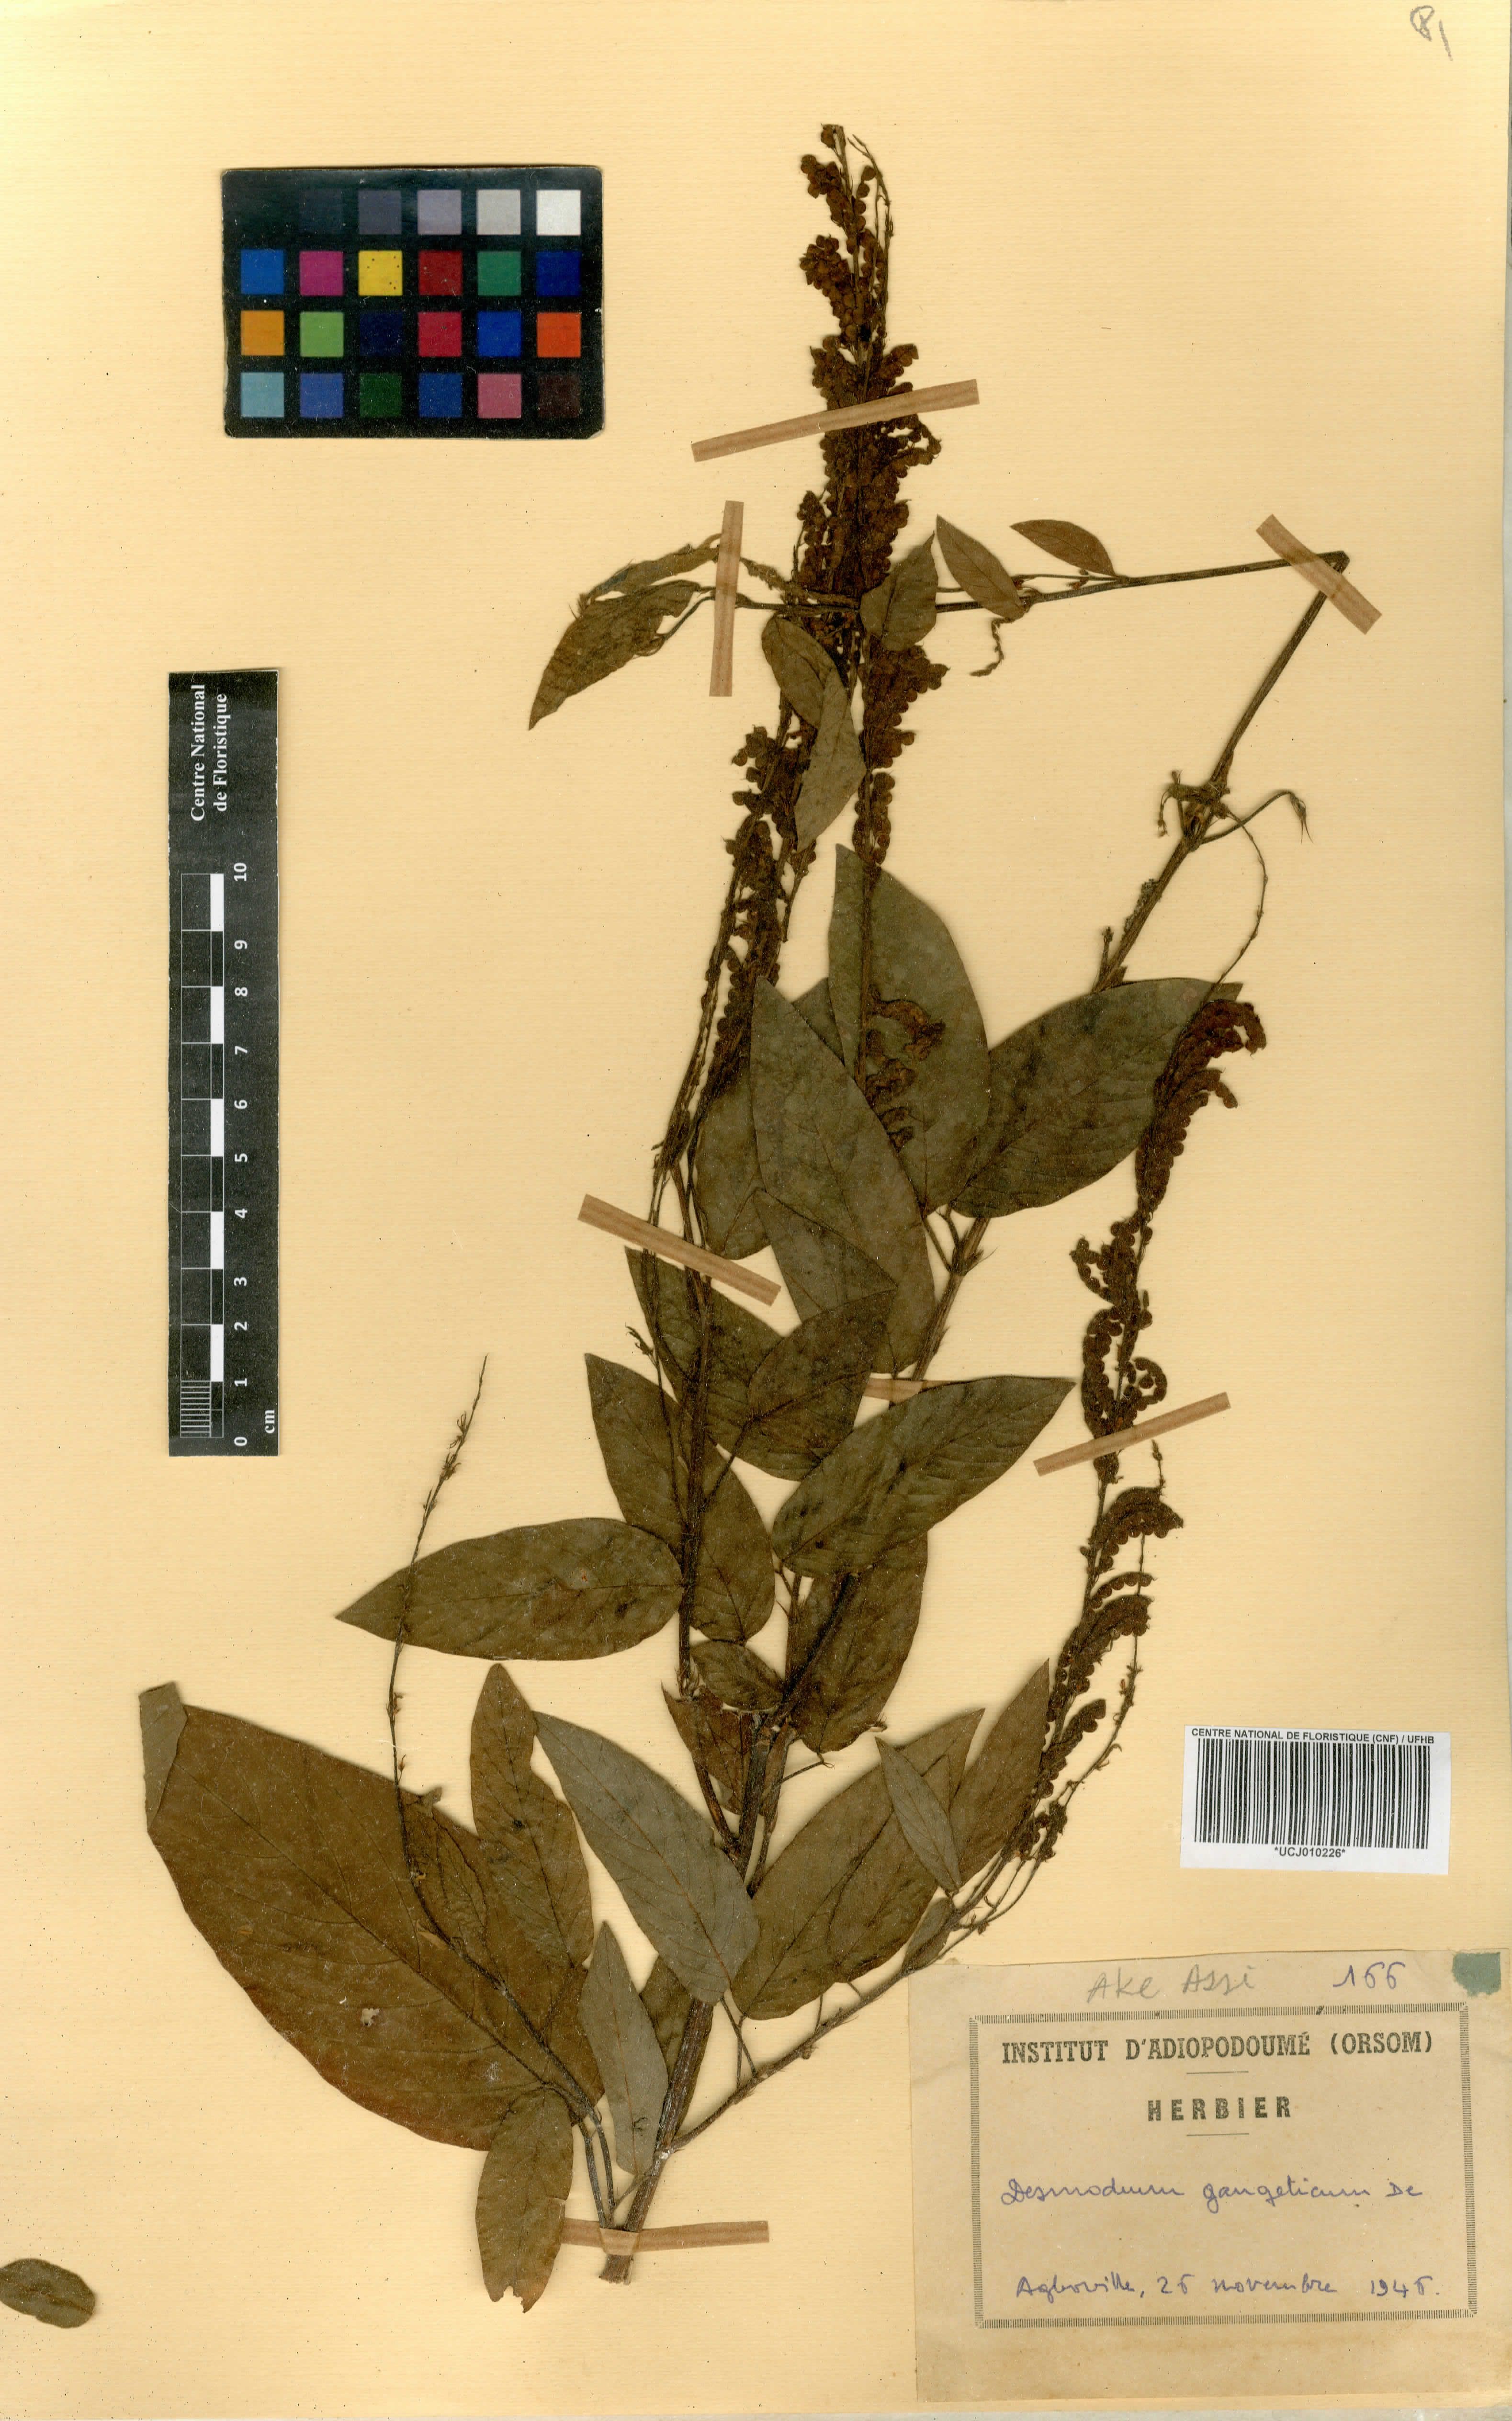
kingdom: Plantae
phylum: Tracheophyta
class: Magnoliopsida
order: Fabales
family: Fabaceae
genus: Pleurolobus
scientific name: Pleurolobus gangeticus
